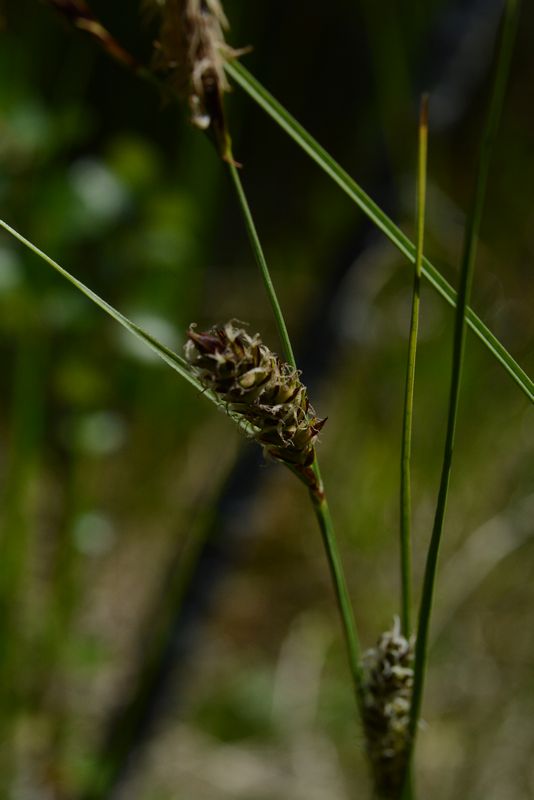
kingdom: Plantae
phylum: Tracheophyta
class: Liliopsida
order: Poales
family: Cyperaceae
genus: Carex
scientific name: Carex lasiocarpa
